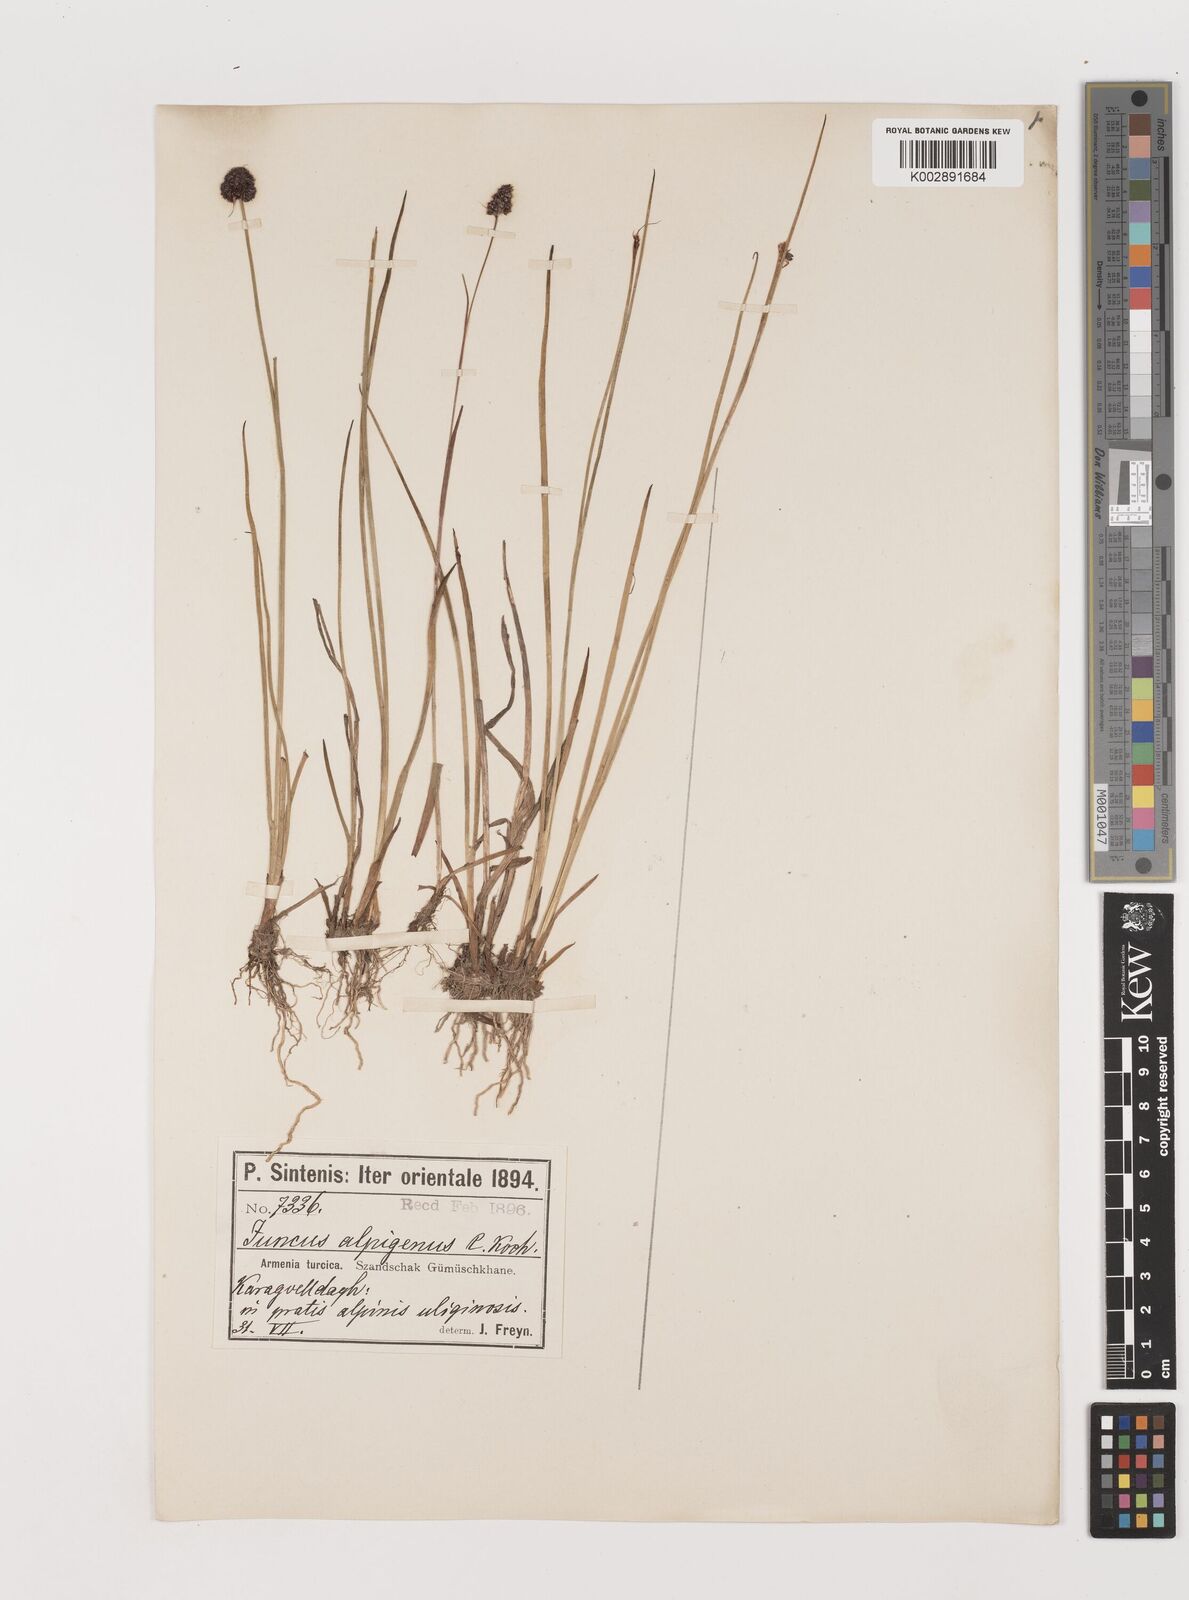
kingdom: Plantae
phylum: Tracheophyta
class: Liliopsida
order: Poales
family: Juncaceae
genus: Juncus
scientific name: Juncus alpigenus
